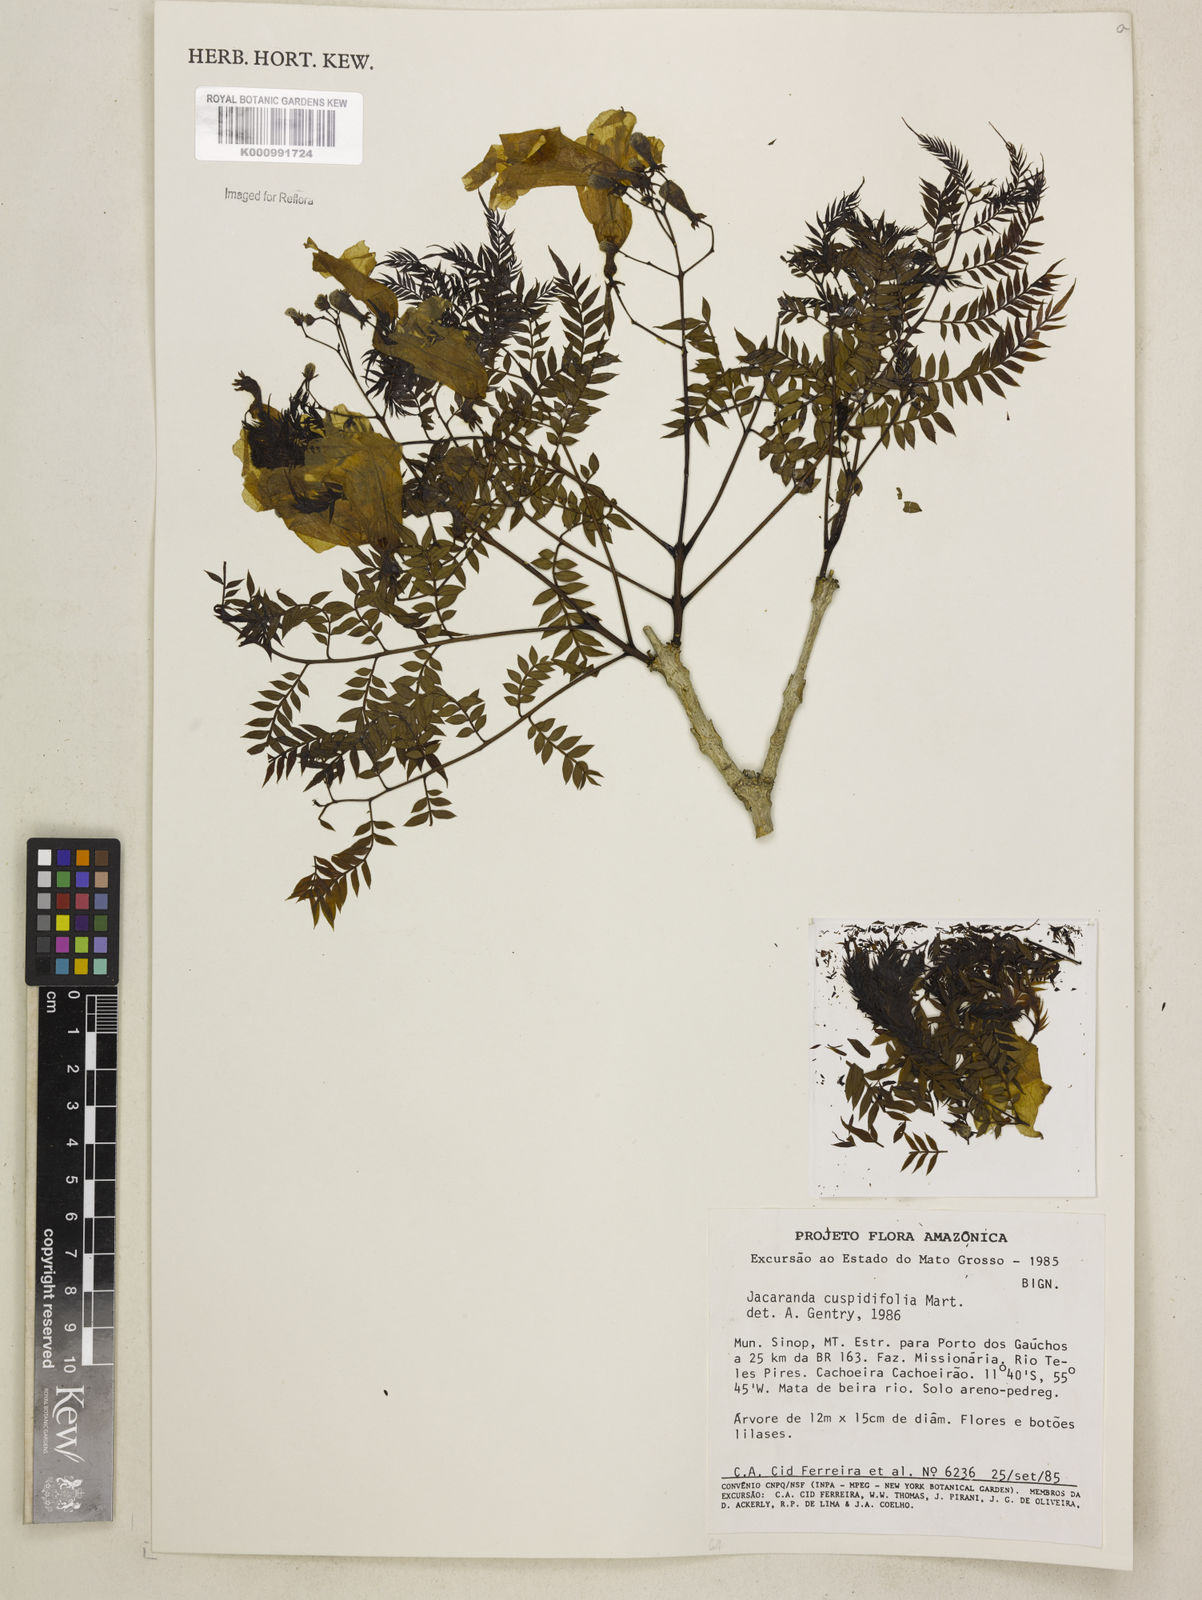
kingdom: Plantae
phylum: Tracheophyta
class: Magnoliopsida
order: Lamiales
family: Bignoniaceae
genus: Jacaranda
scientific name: Jacaranda cuspidifolia
